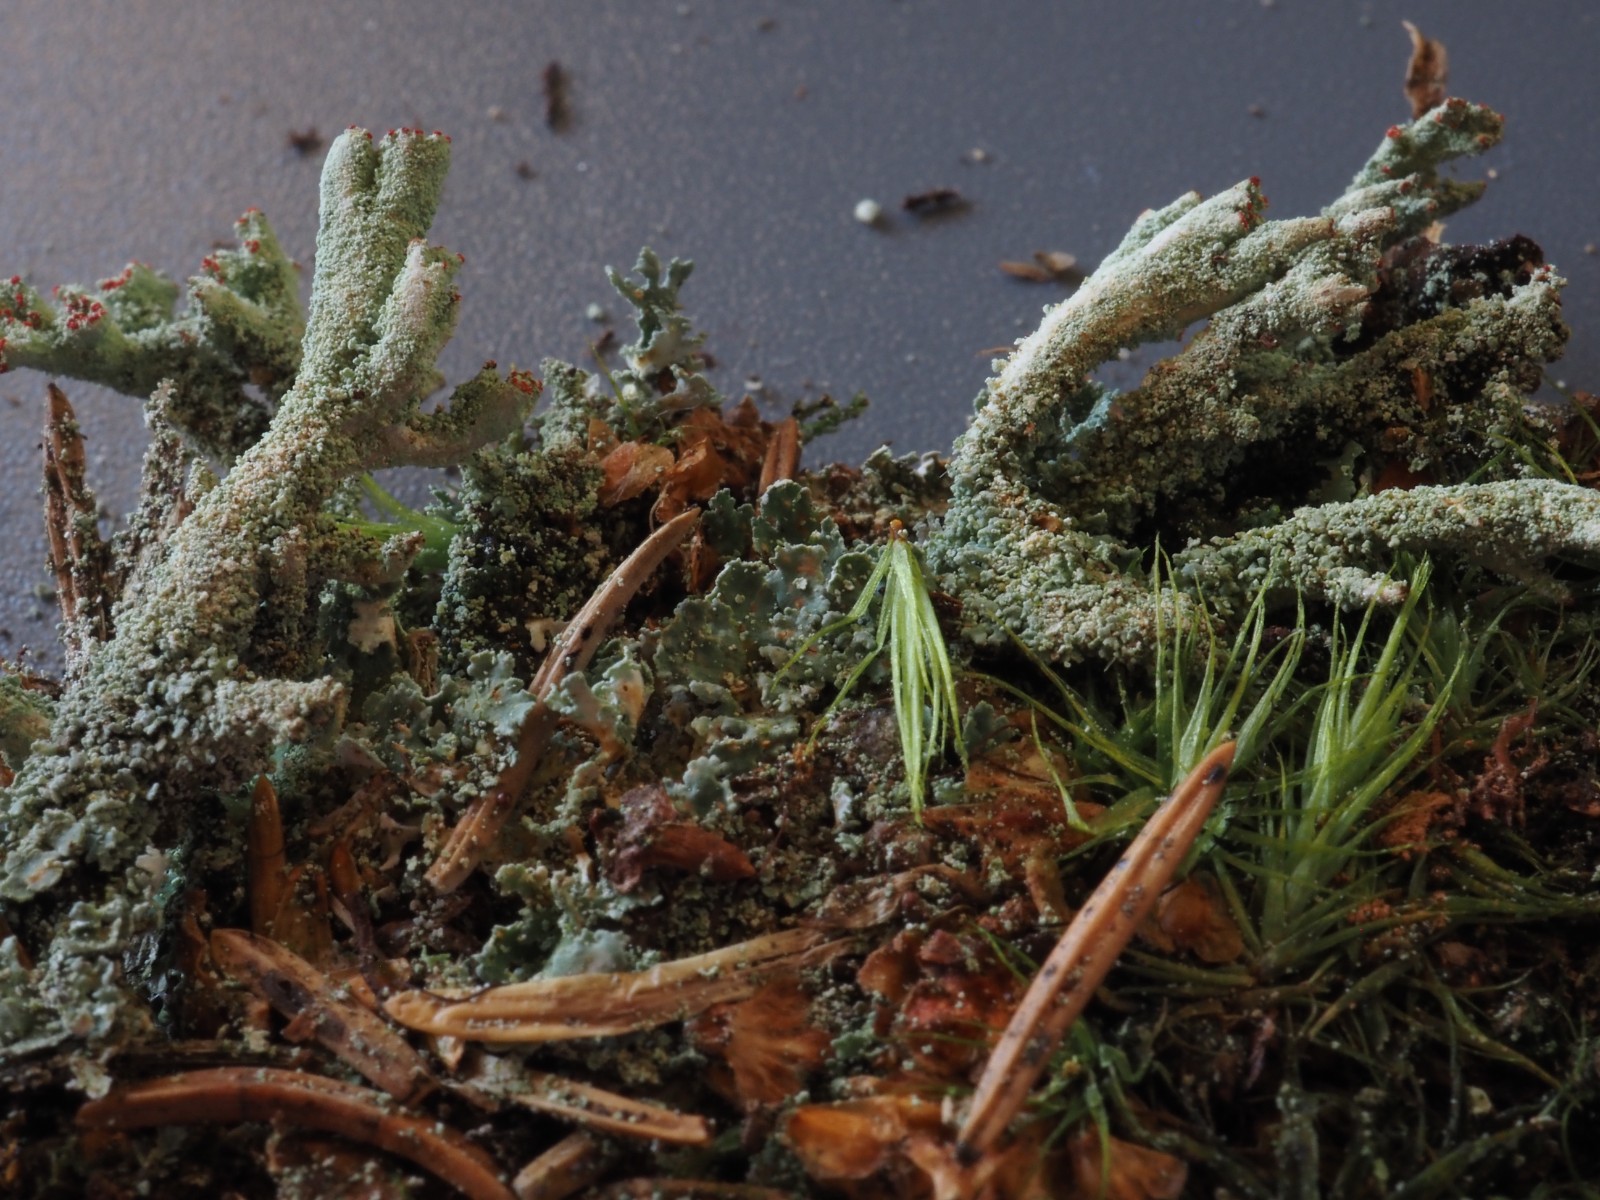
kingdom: Fungi
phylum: Ascomycota
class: Lecanoromycetes
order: Lecanorales
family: Cladoniaceae
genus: Cladonia
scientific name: Cladonia polydactyla
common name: vifte-bægerlav
